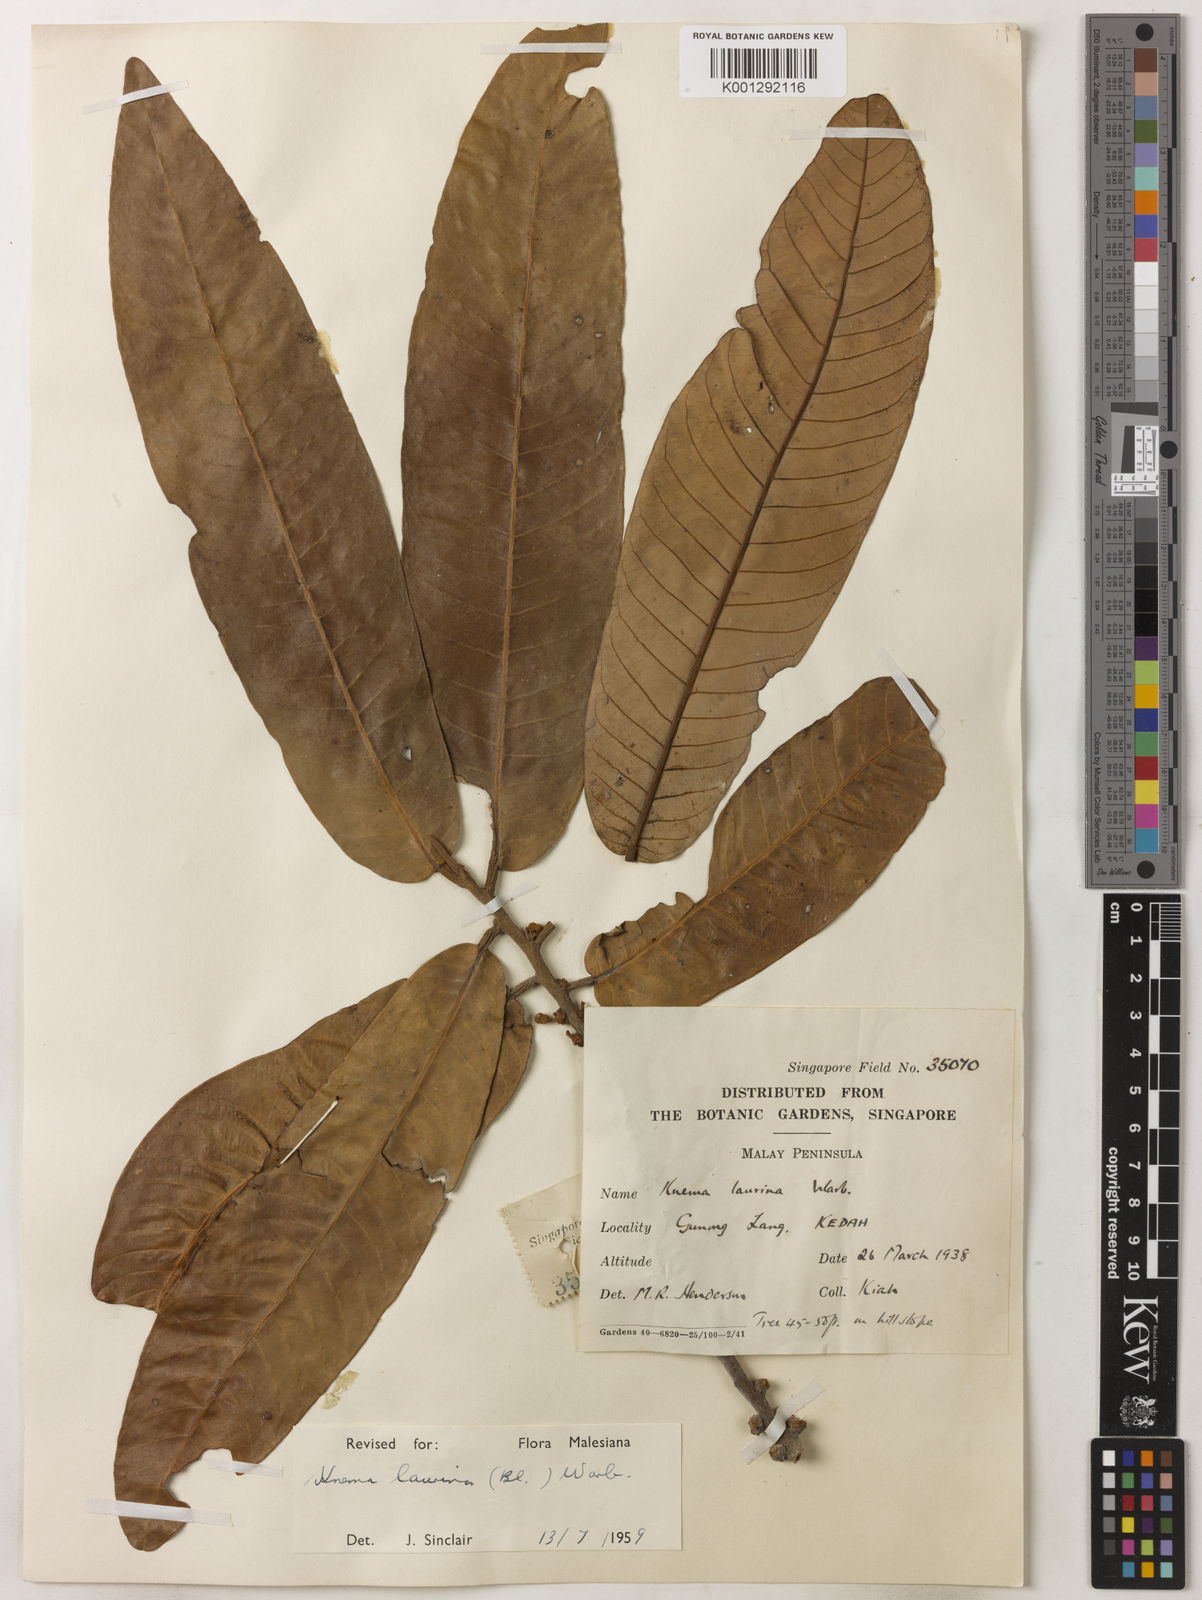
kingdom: Plantae
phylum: Tracheophyta
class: Magnoliopsida
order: Magnoliales
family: Myristicaceae
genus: Knema
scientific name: Knema laurina
